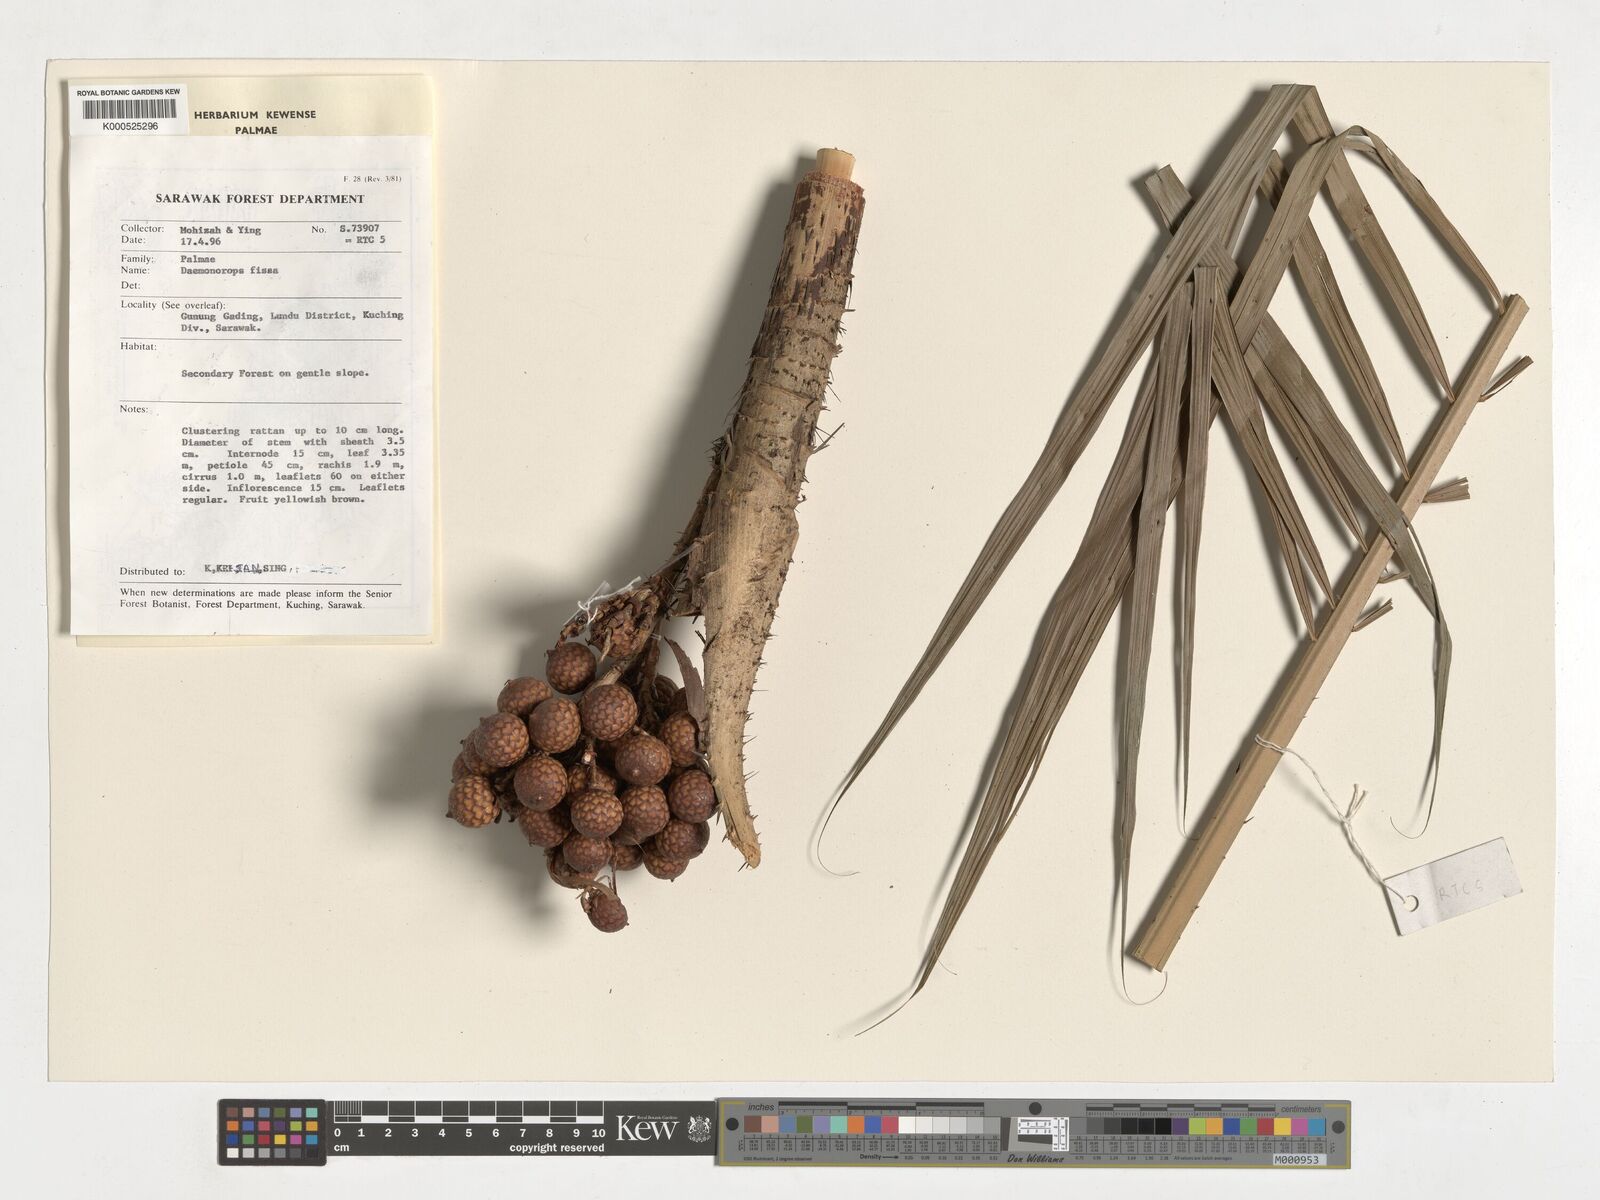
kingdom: Plantae
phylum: Tracheophyta
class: Liliopsida
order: Arecales
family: Arecaceae
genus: Calamus
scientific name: Calamus melanochaetes
